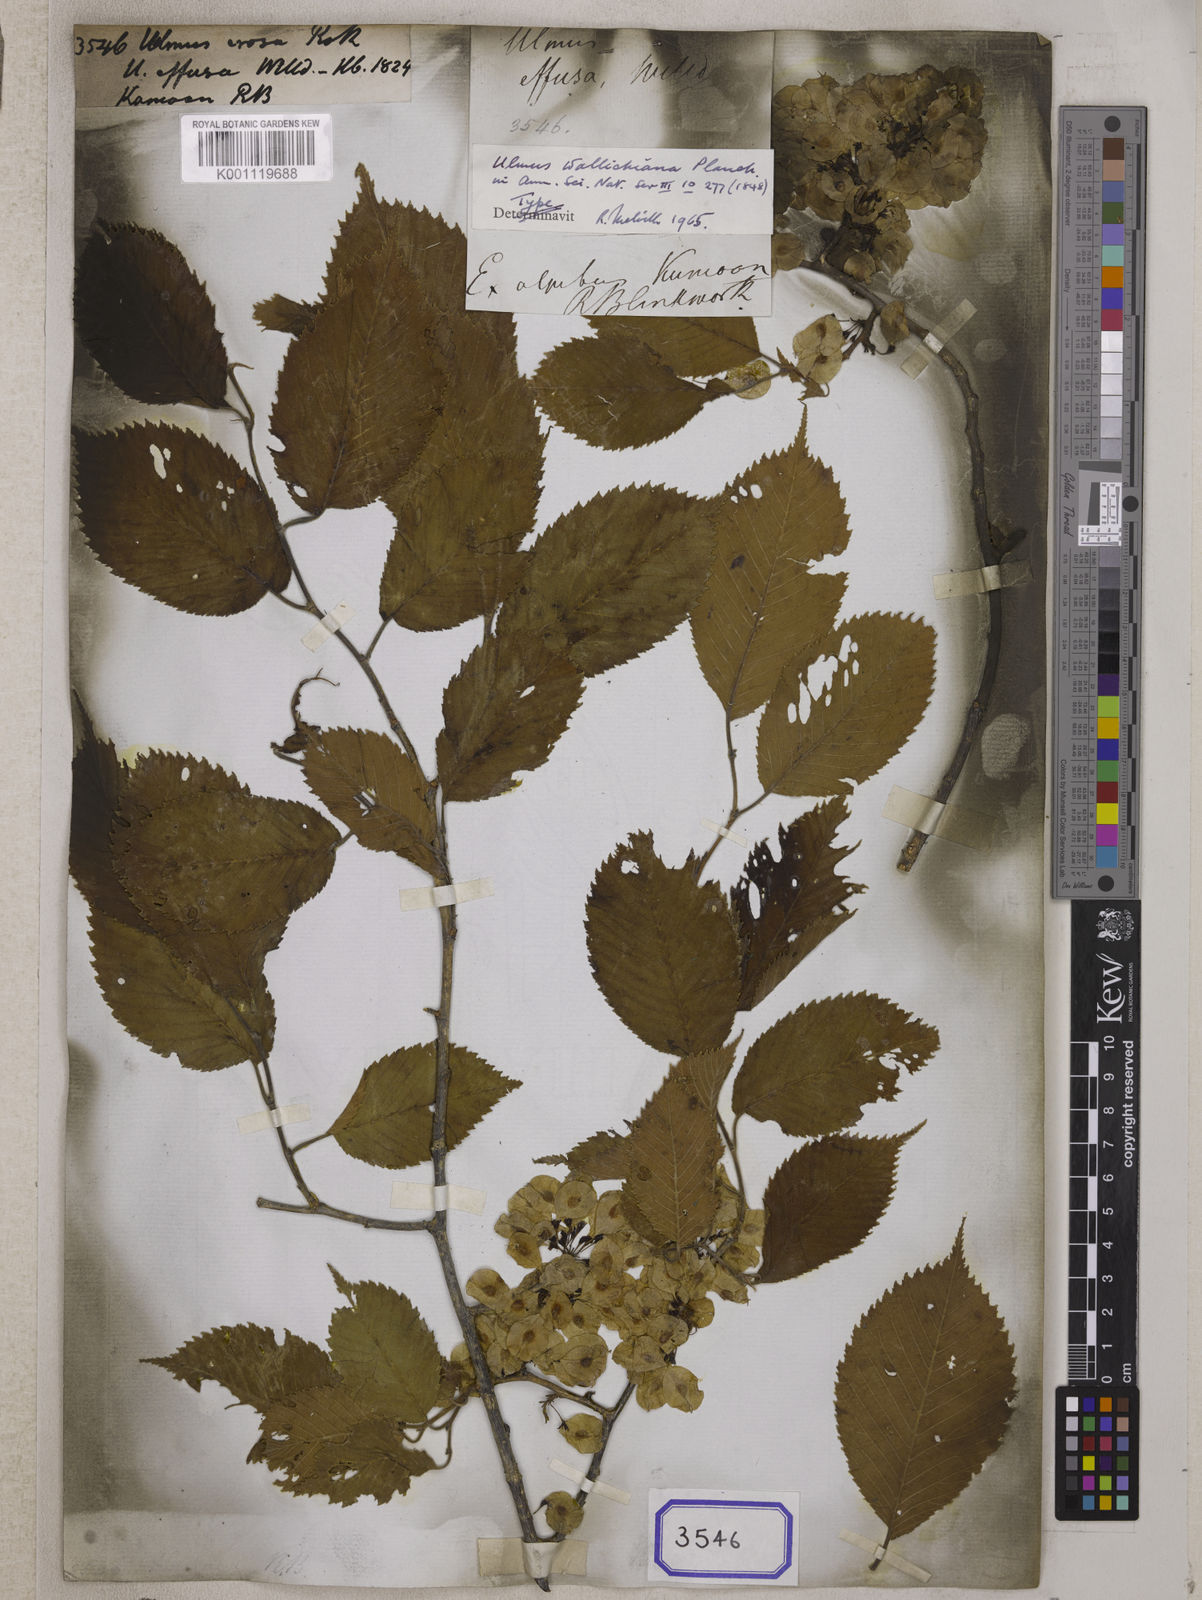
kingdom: Plantae
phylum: Tracheophyta
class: Magnoliopsida
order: Rosales
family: Ulmaceae
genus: Ulmus
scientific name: Ulmus erosa
